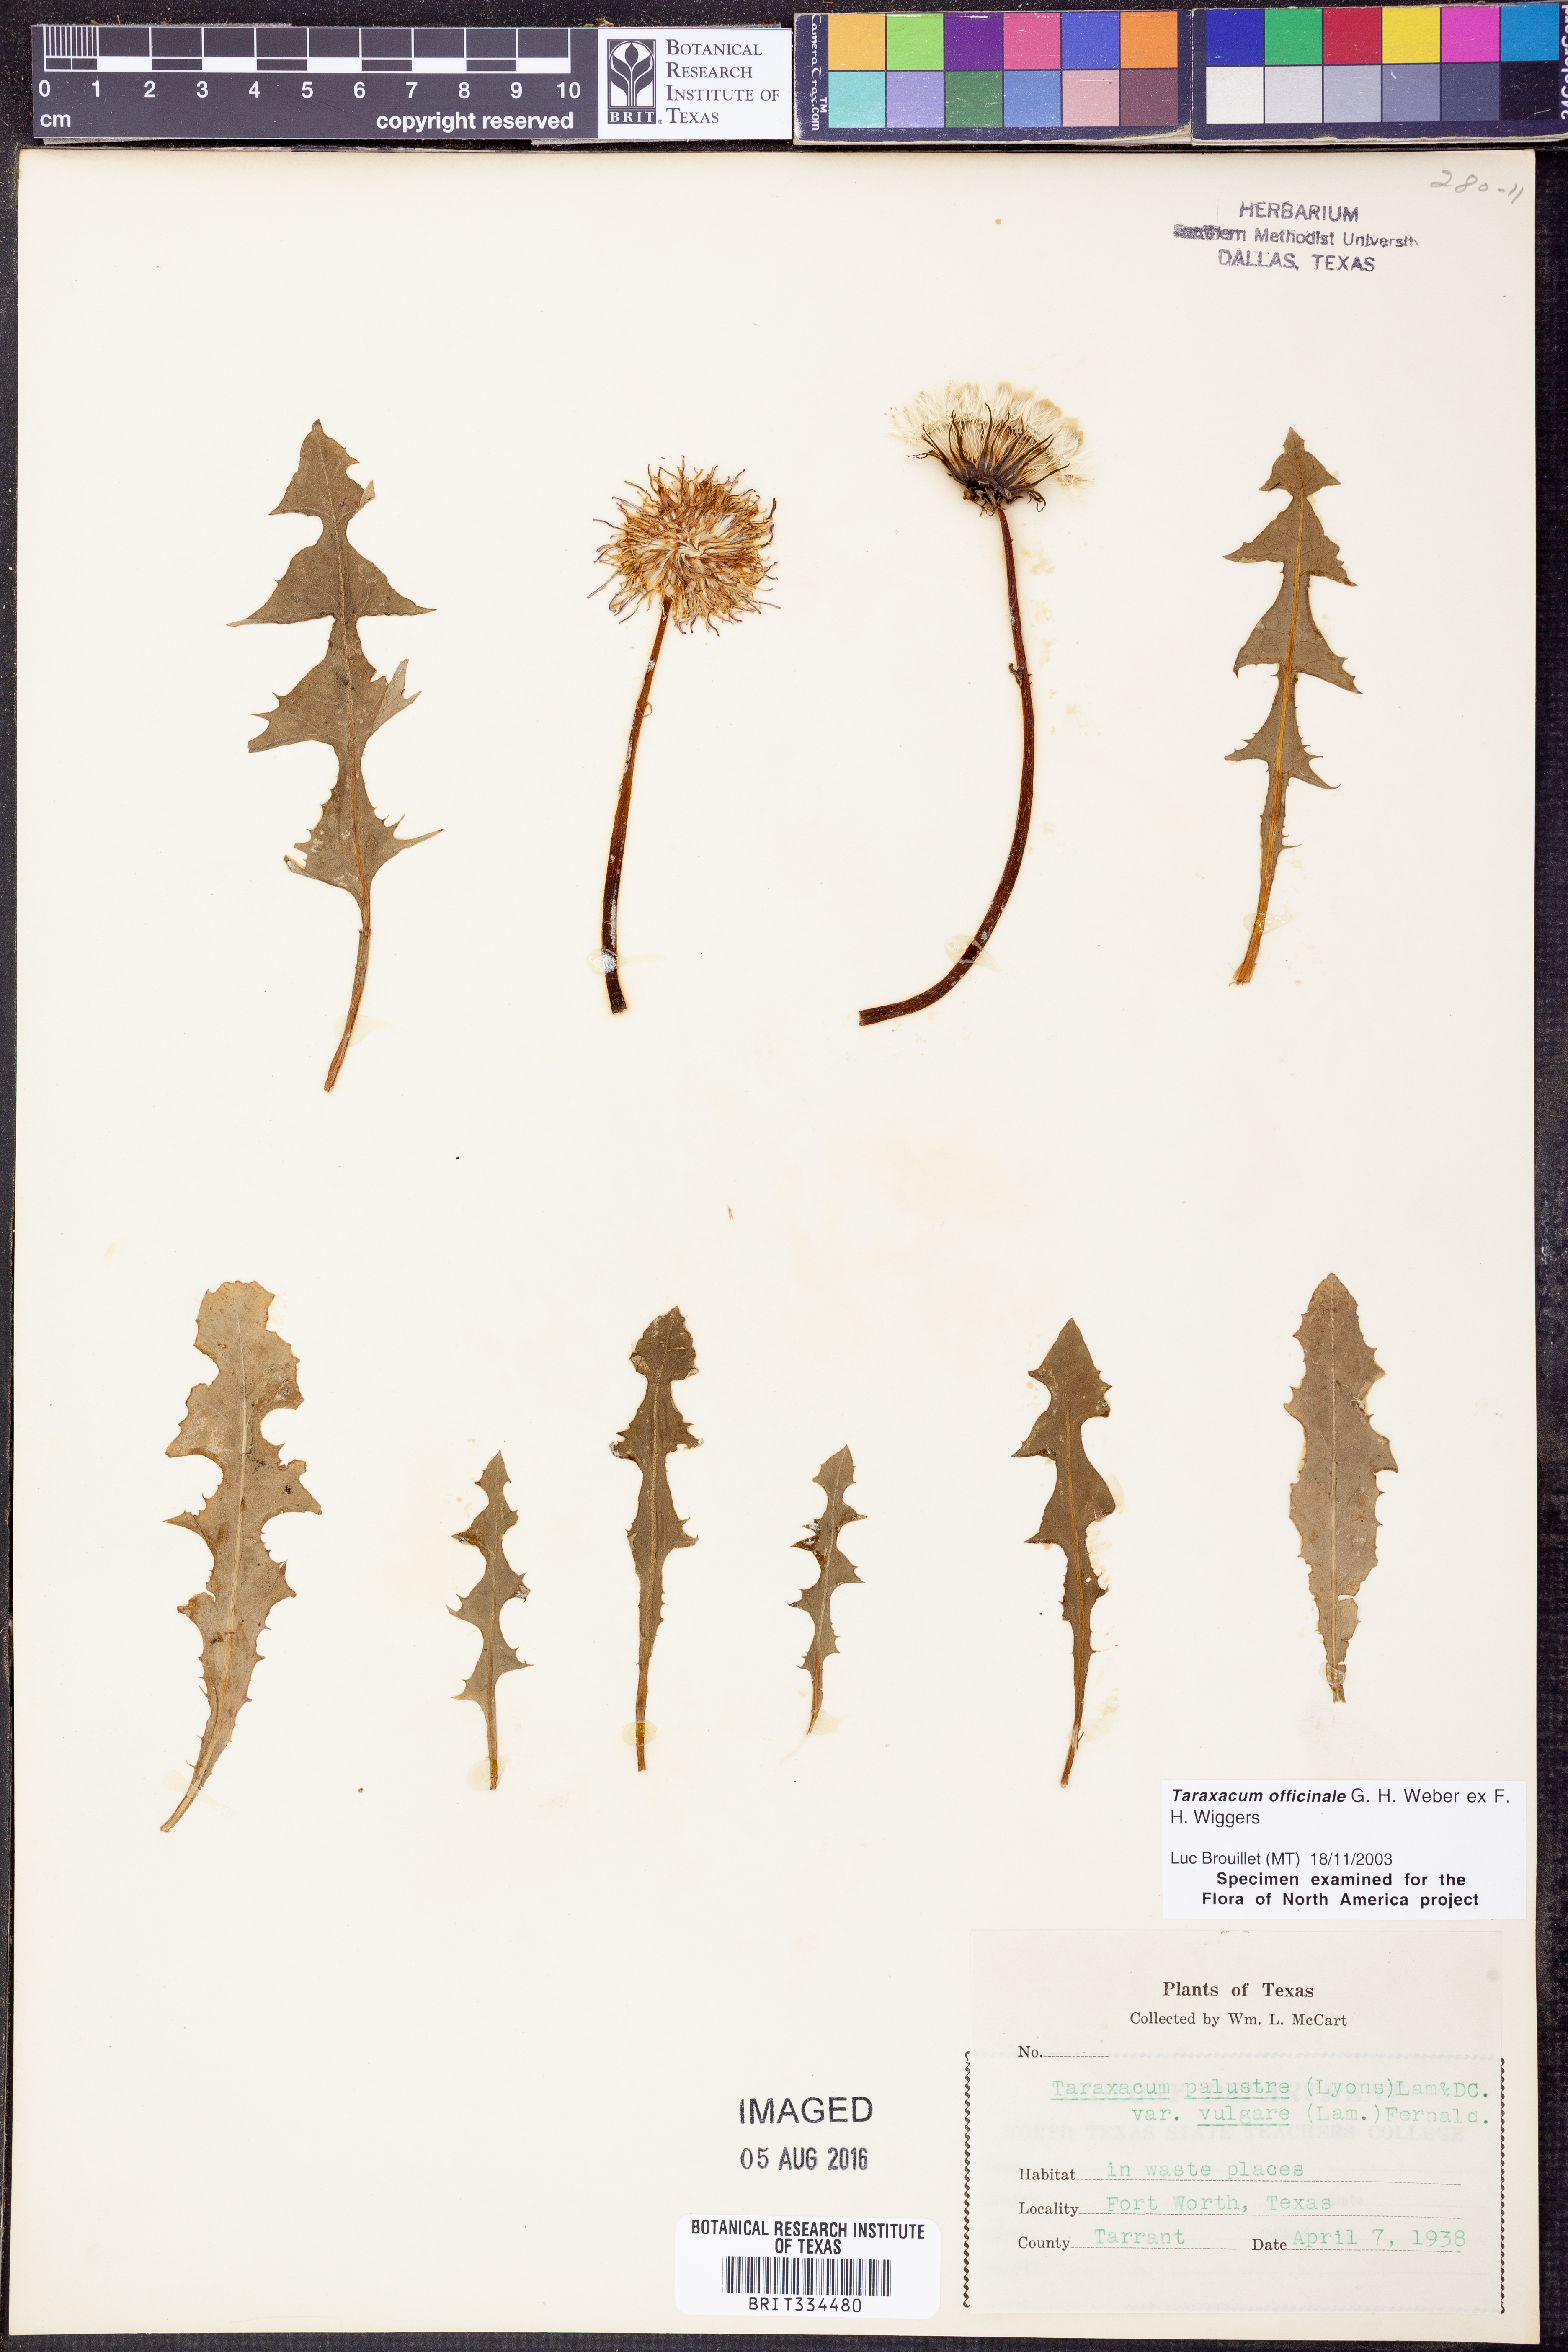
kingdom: Plantae
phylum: Tracheophyta
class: Magnoliopsida
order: Asterales
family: Asteraceae
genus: Taraxacum
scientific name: Taraxacum officinale
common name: Common dandelion
